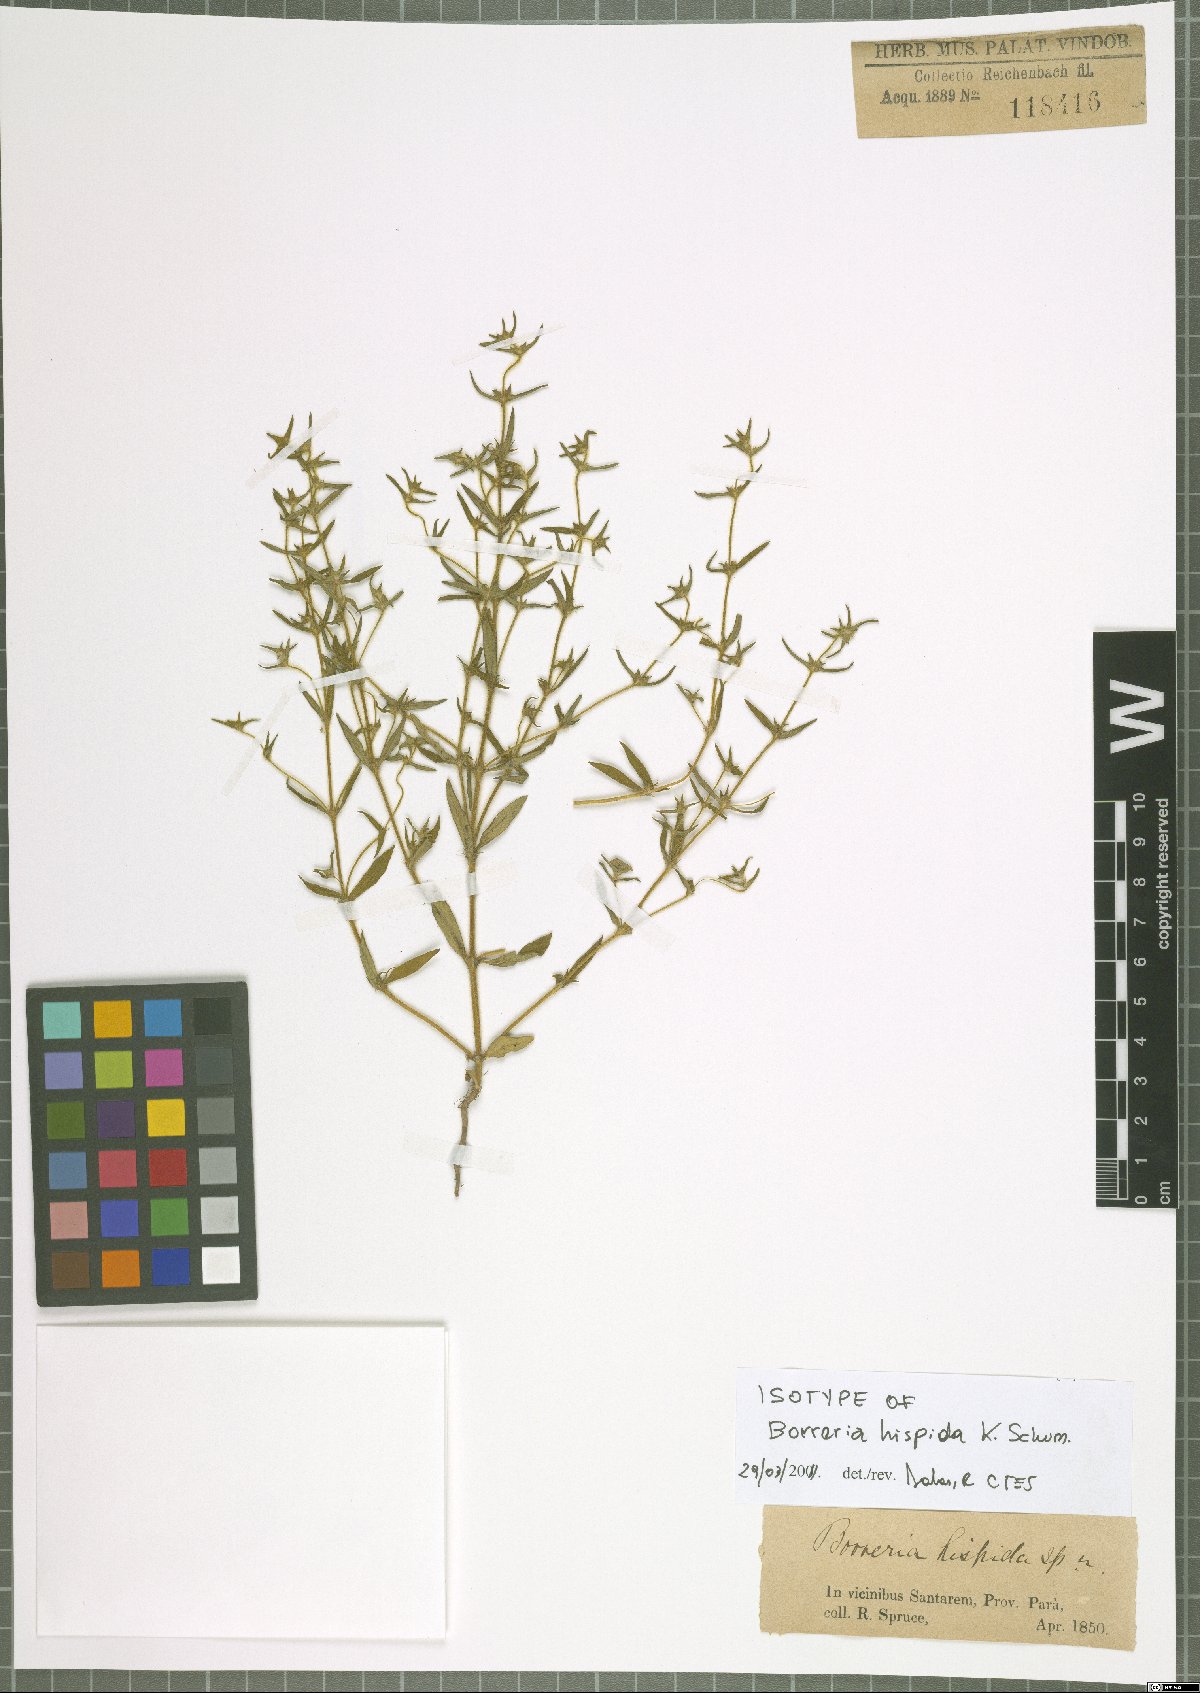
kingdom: Plantae
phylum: Tracheophyta
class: Magnoliopsida
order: Gentianales
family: Rubiaceae
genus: Spermacoce
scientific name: Spermacoce hispida
